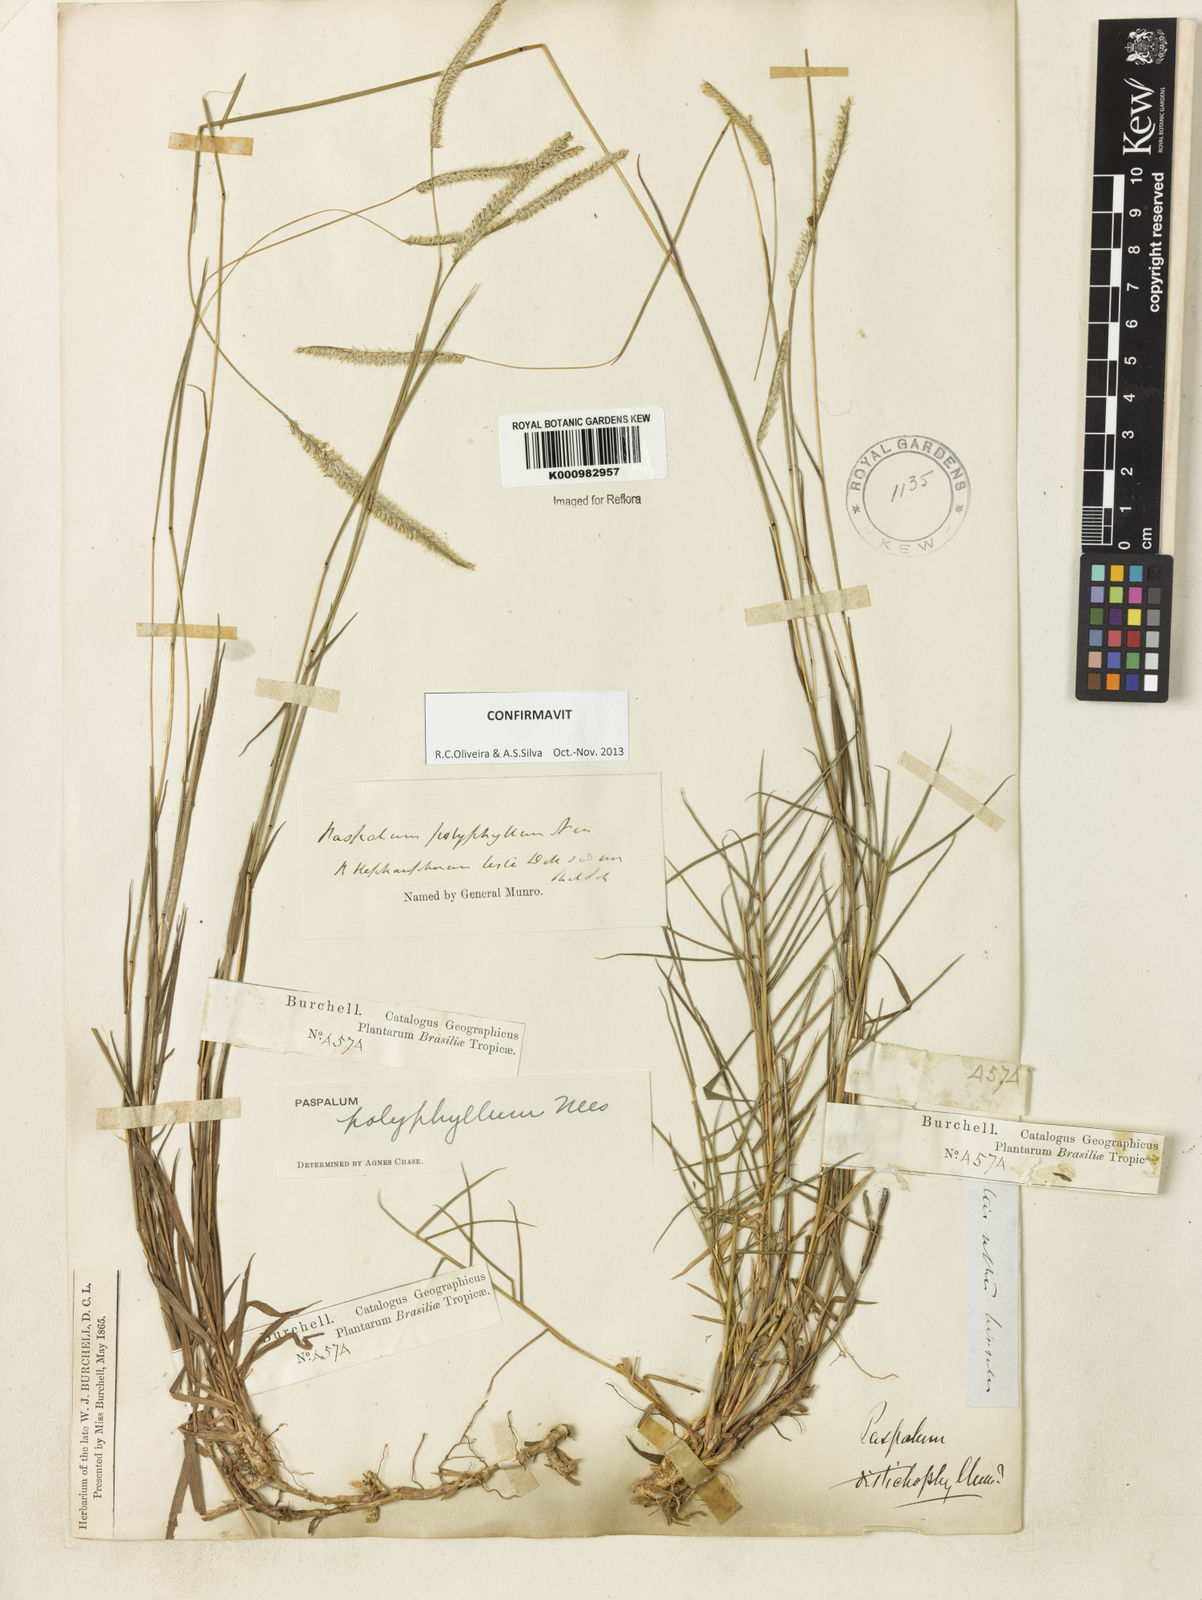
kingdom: Plantae
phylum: Tracheophyta
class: Liliopsida
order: Poales
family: Poaceae
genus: Paspalum
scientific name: Paspalum
